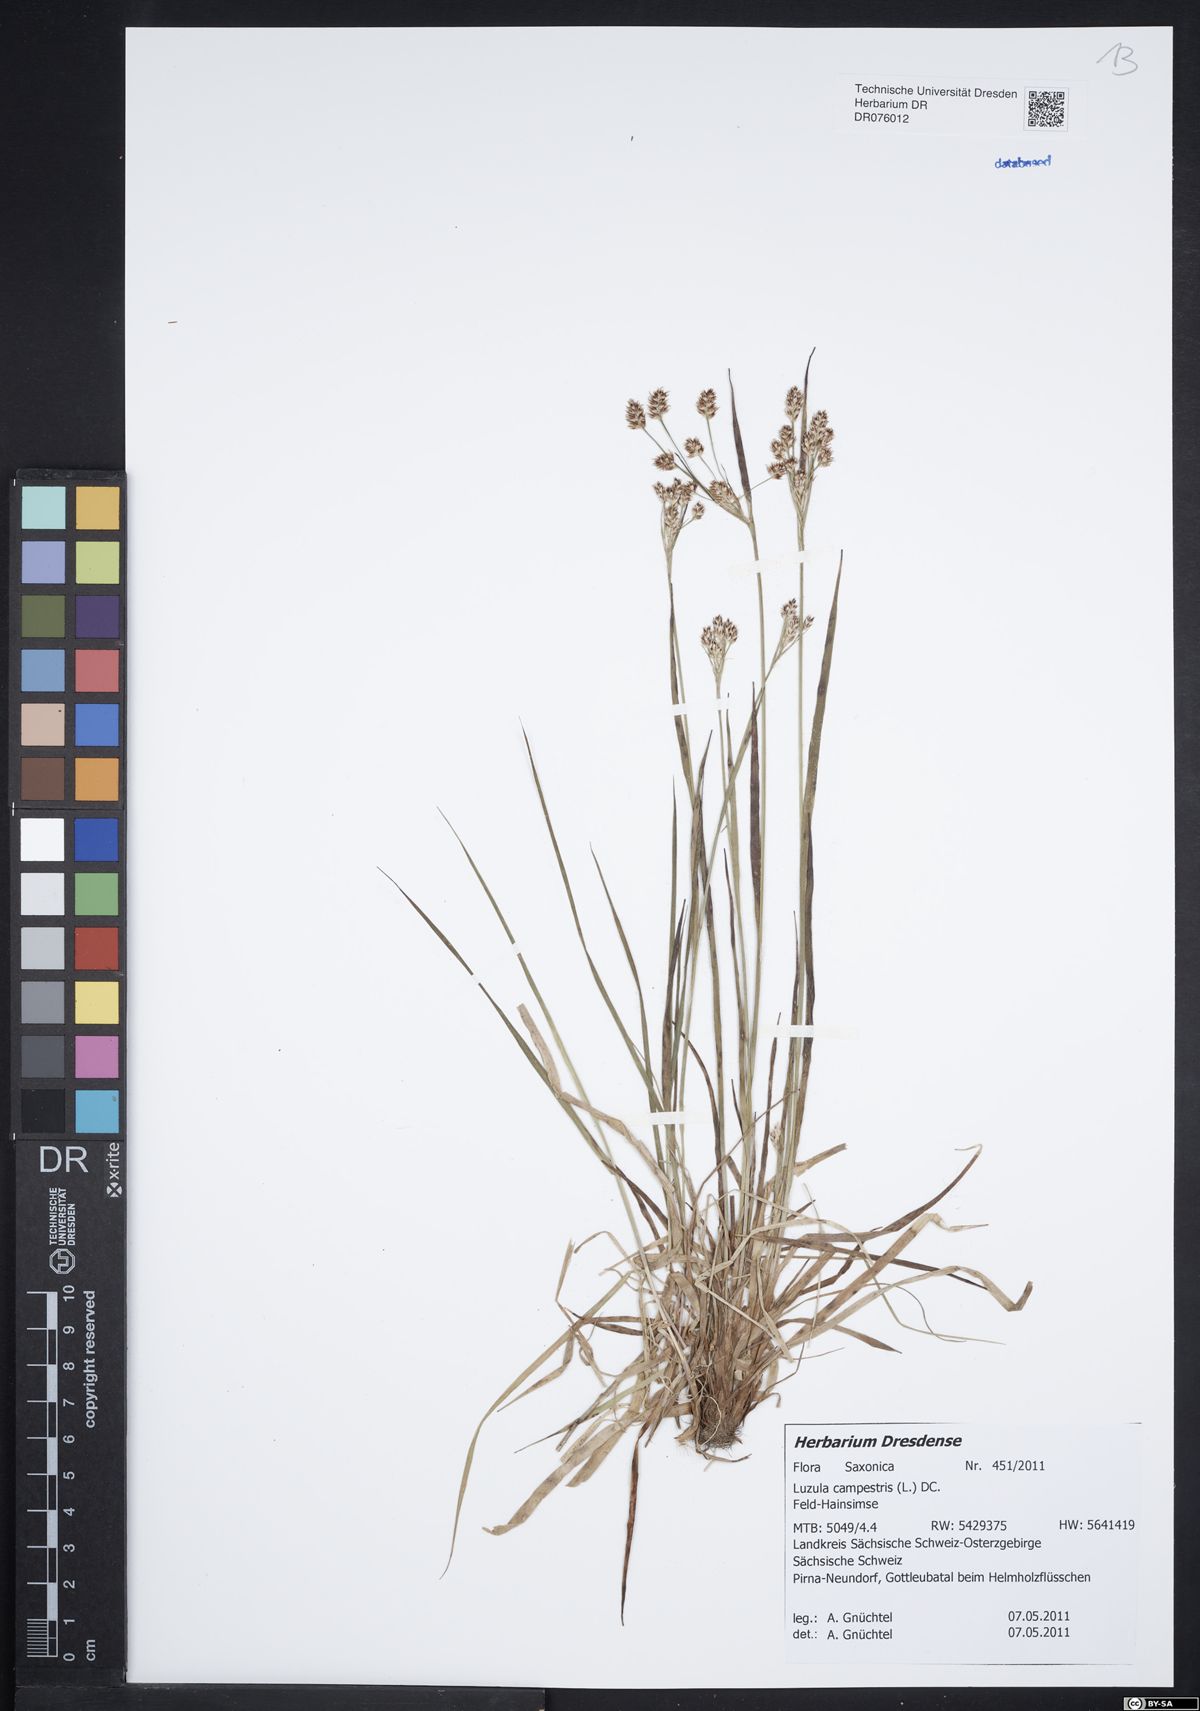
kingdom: Plantae
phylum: Tracheophyta
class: Liliopsida
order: Poales
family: Juncaceae
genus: Luzula
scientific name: Luzula campestris
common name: Field wood-rush
